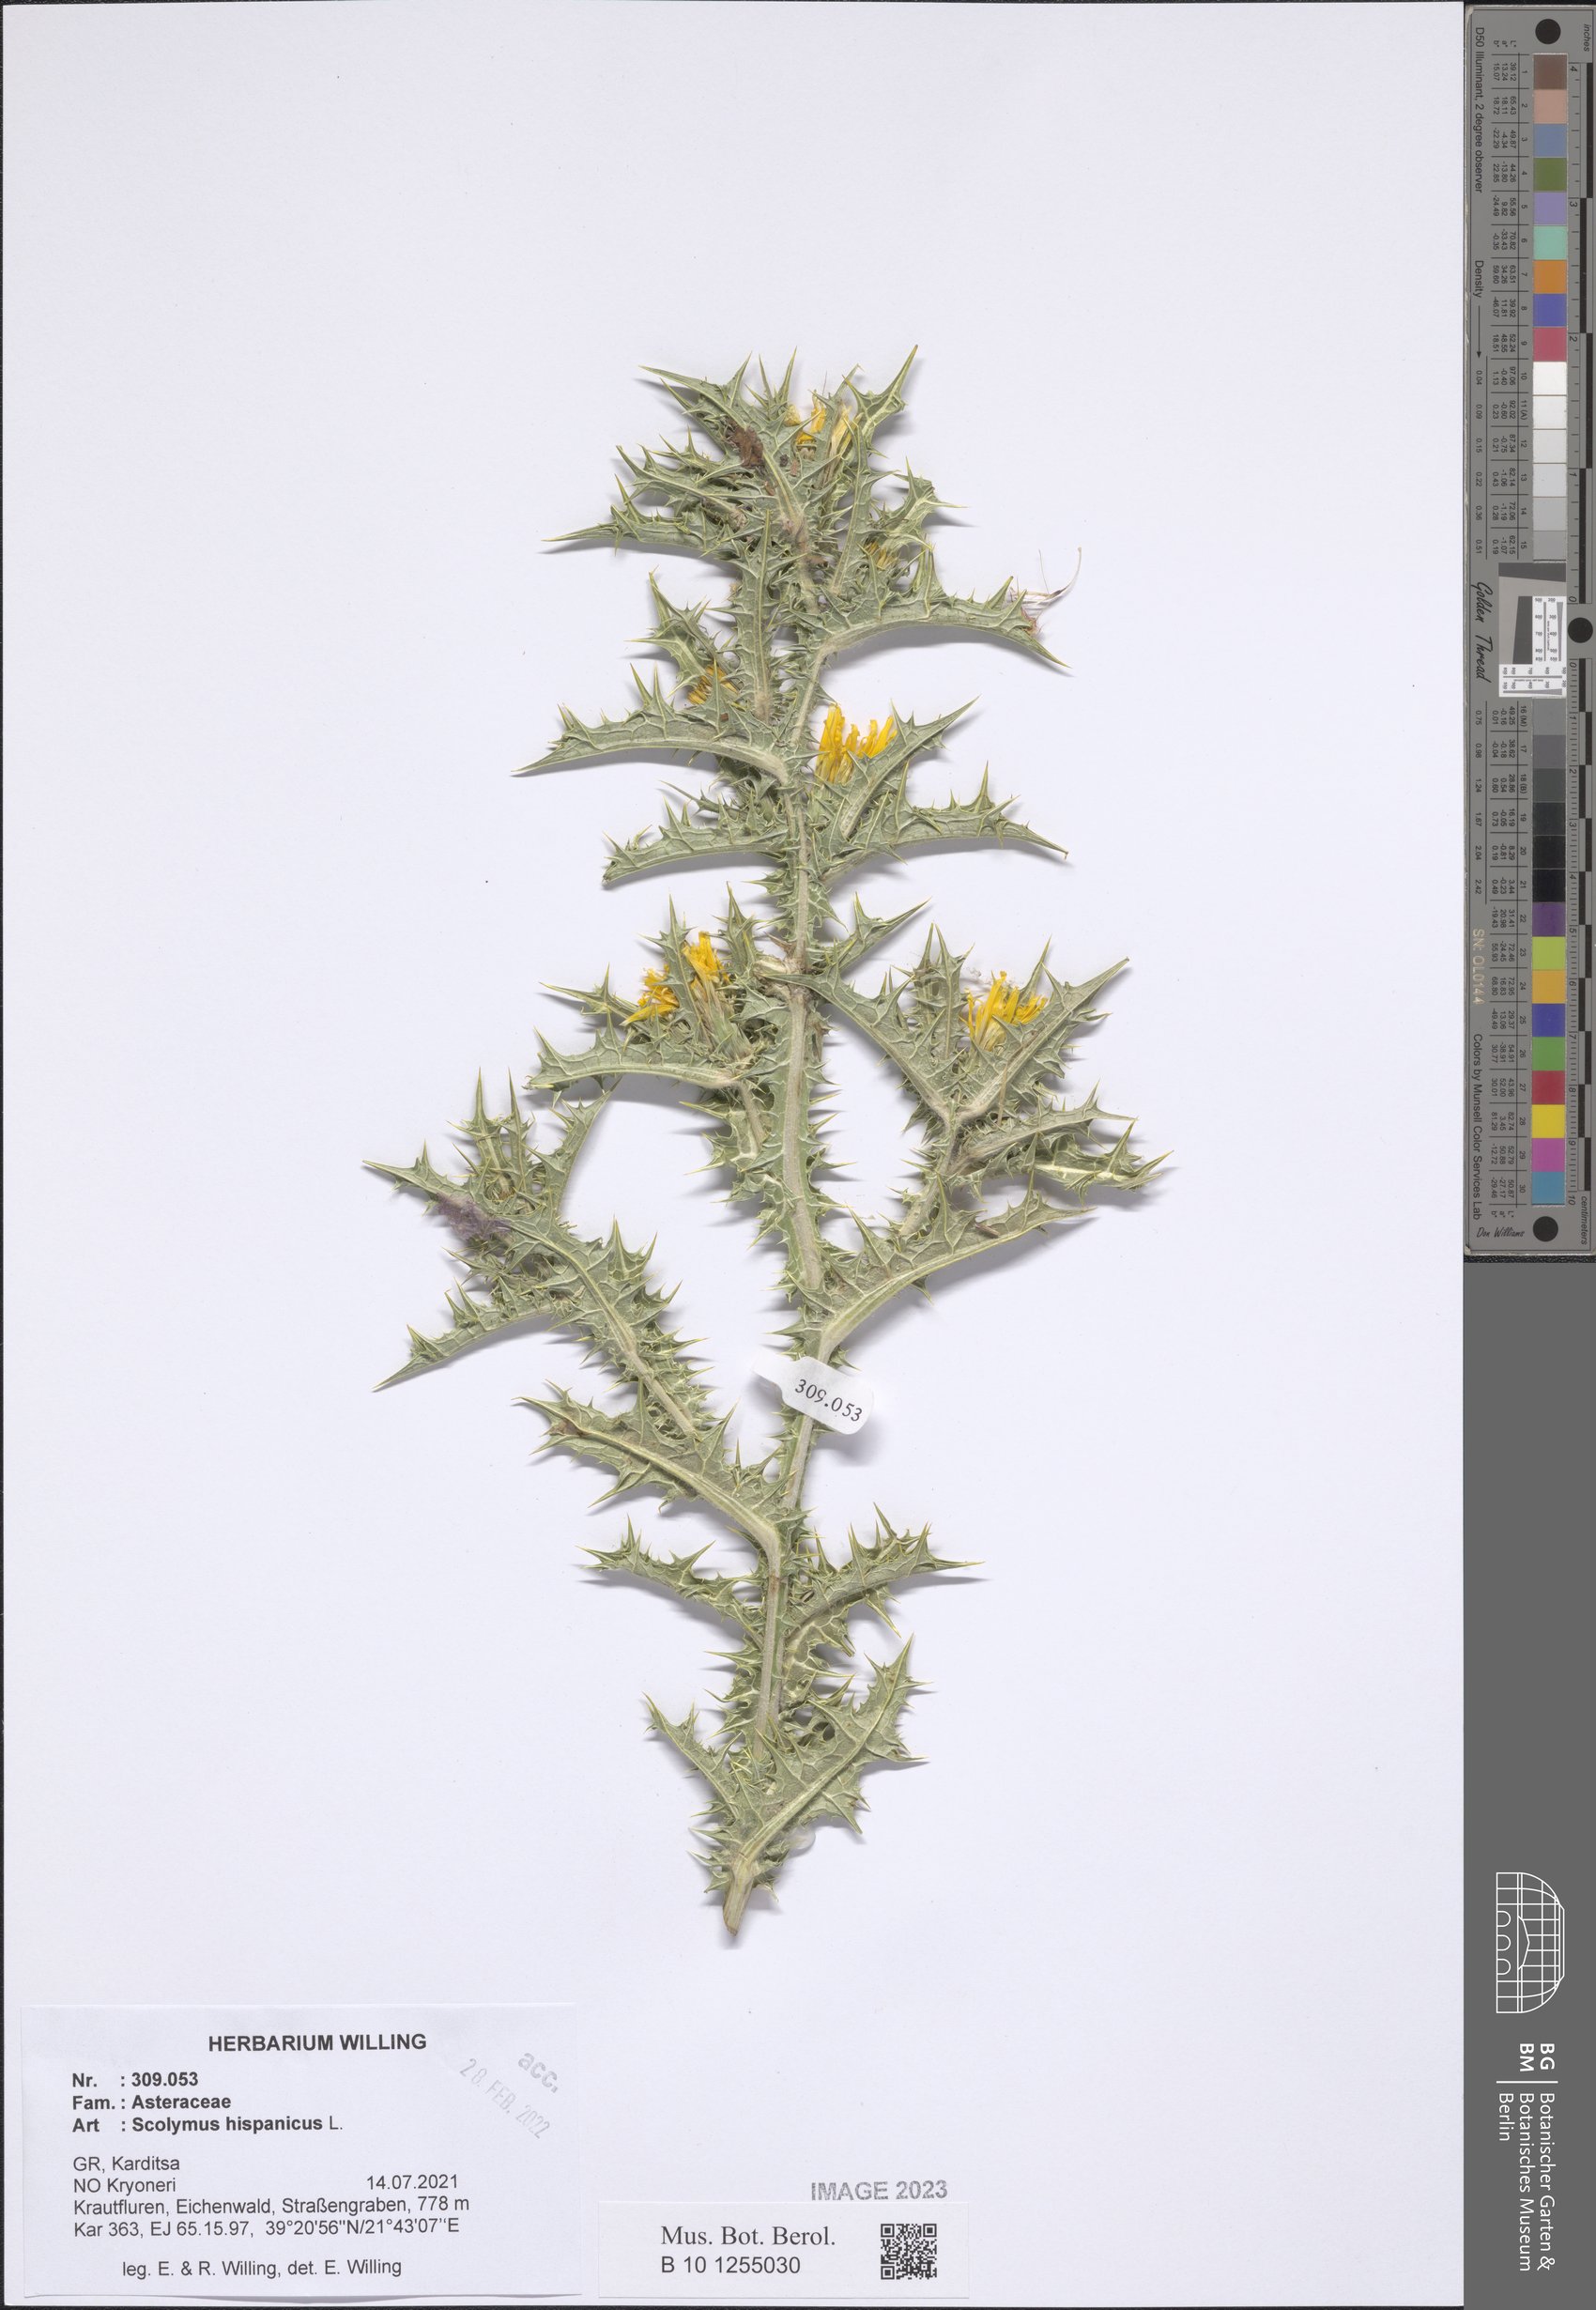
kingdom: Plantae
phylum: Tracheophyta
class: Magnoliopsida
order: Asterales
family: Asteraceae
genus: Scolymus
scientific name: Scolymus hispanicus
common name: Golden thistle
